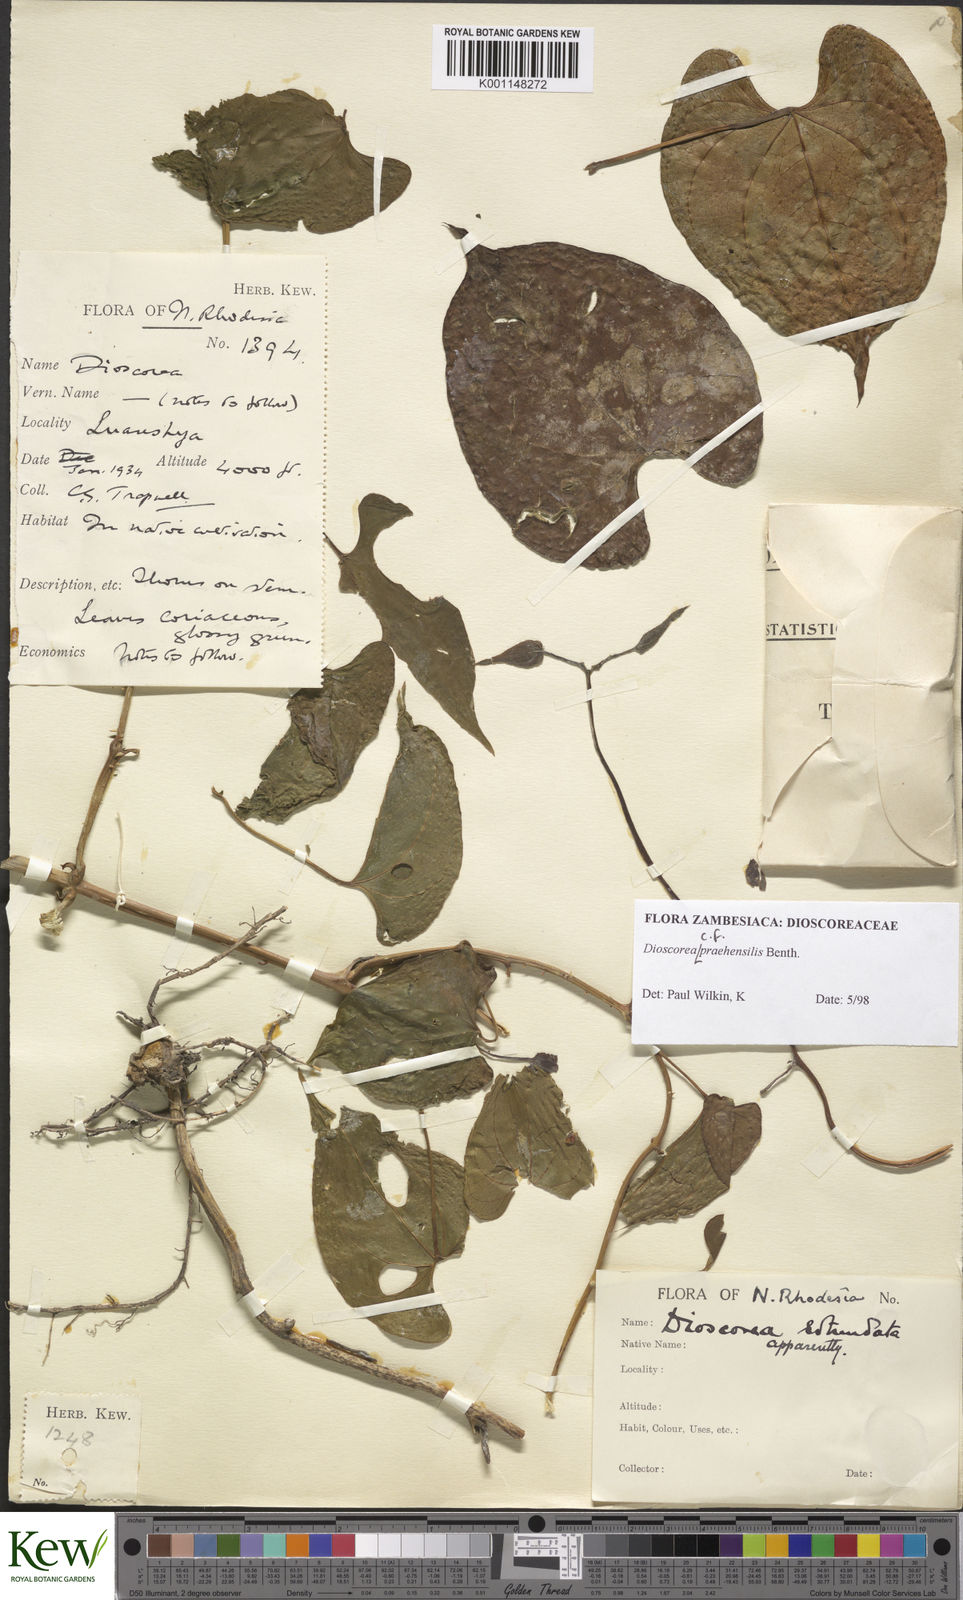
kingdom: Plantae
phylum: Tracheophyta
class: Liliopsida
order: Dioscoreales
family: Dioscoreaceae
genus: Dioscorea
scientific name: Dioscorea praehensilis
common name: Bush yam
